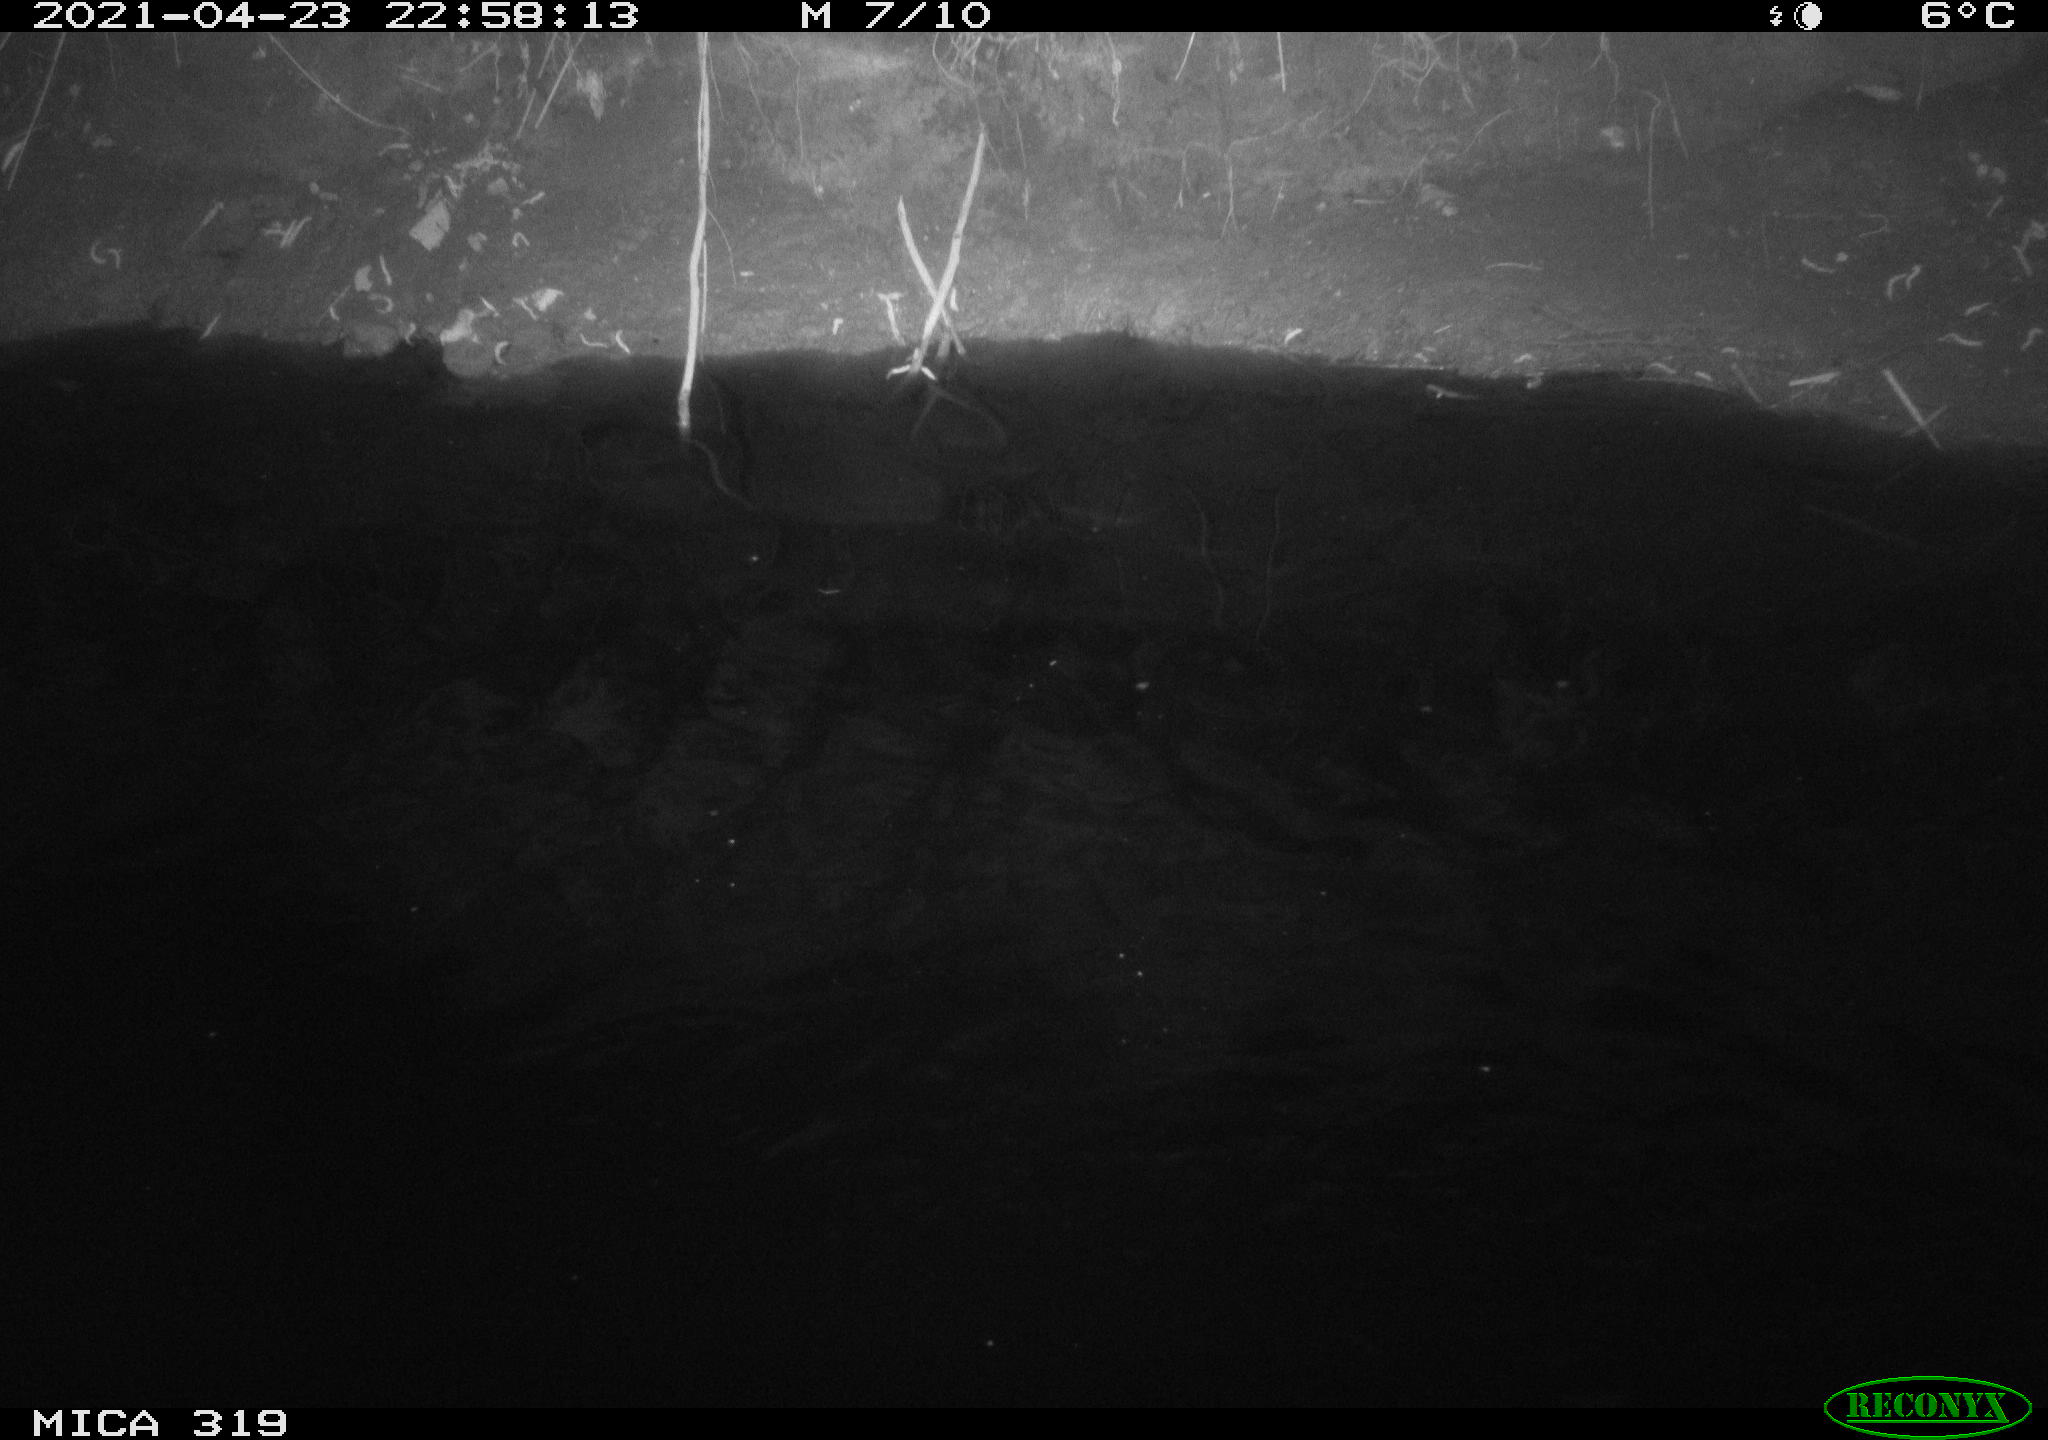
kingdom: Animalia
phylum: Chordata
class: Aves
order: Anseriformes
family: Anatidae
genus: Anas
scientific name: Anas platyrhynchos
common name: Mallard
